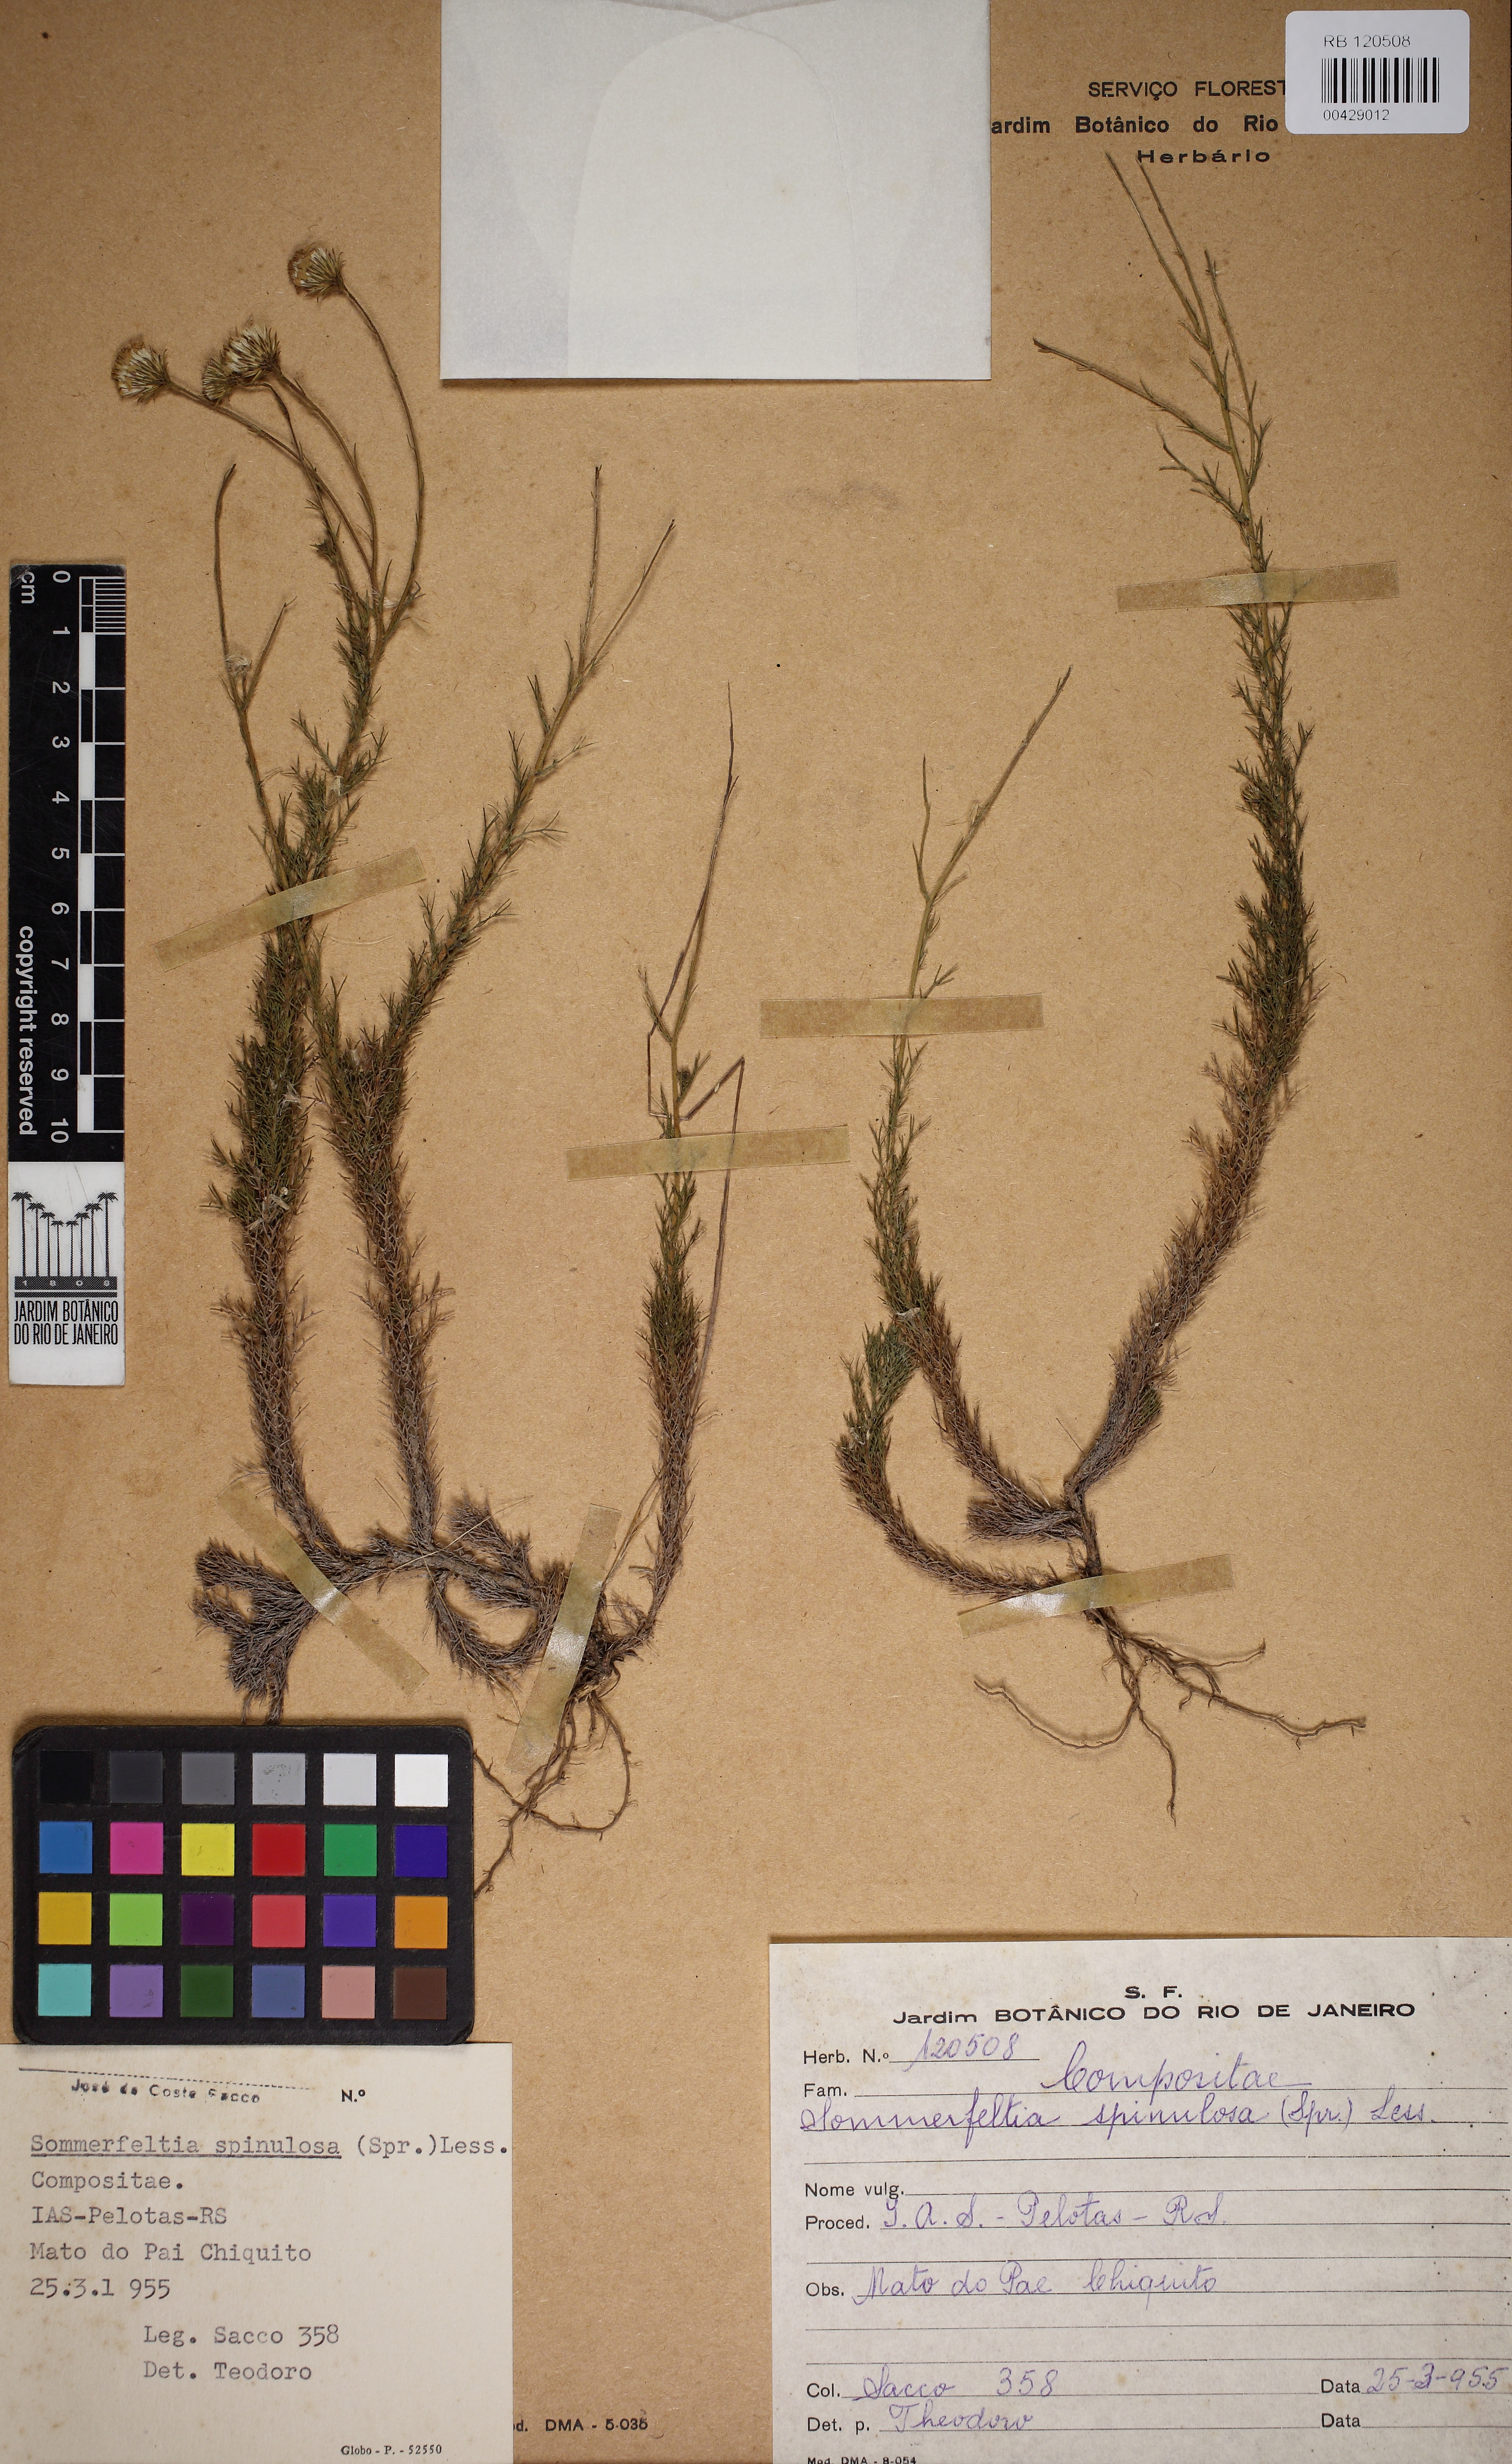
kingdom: Plantae
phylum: Tracheophyta
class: Magnoliopsida
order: Asterales
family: Asteraceae
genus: Sommerfeltia
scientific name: Sommerfeltia spinulosa
